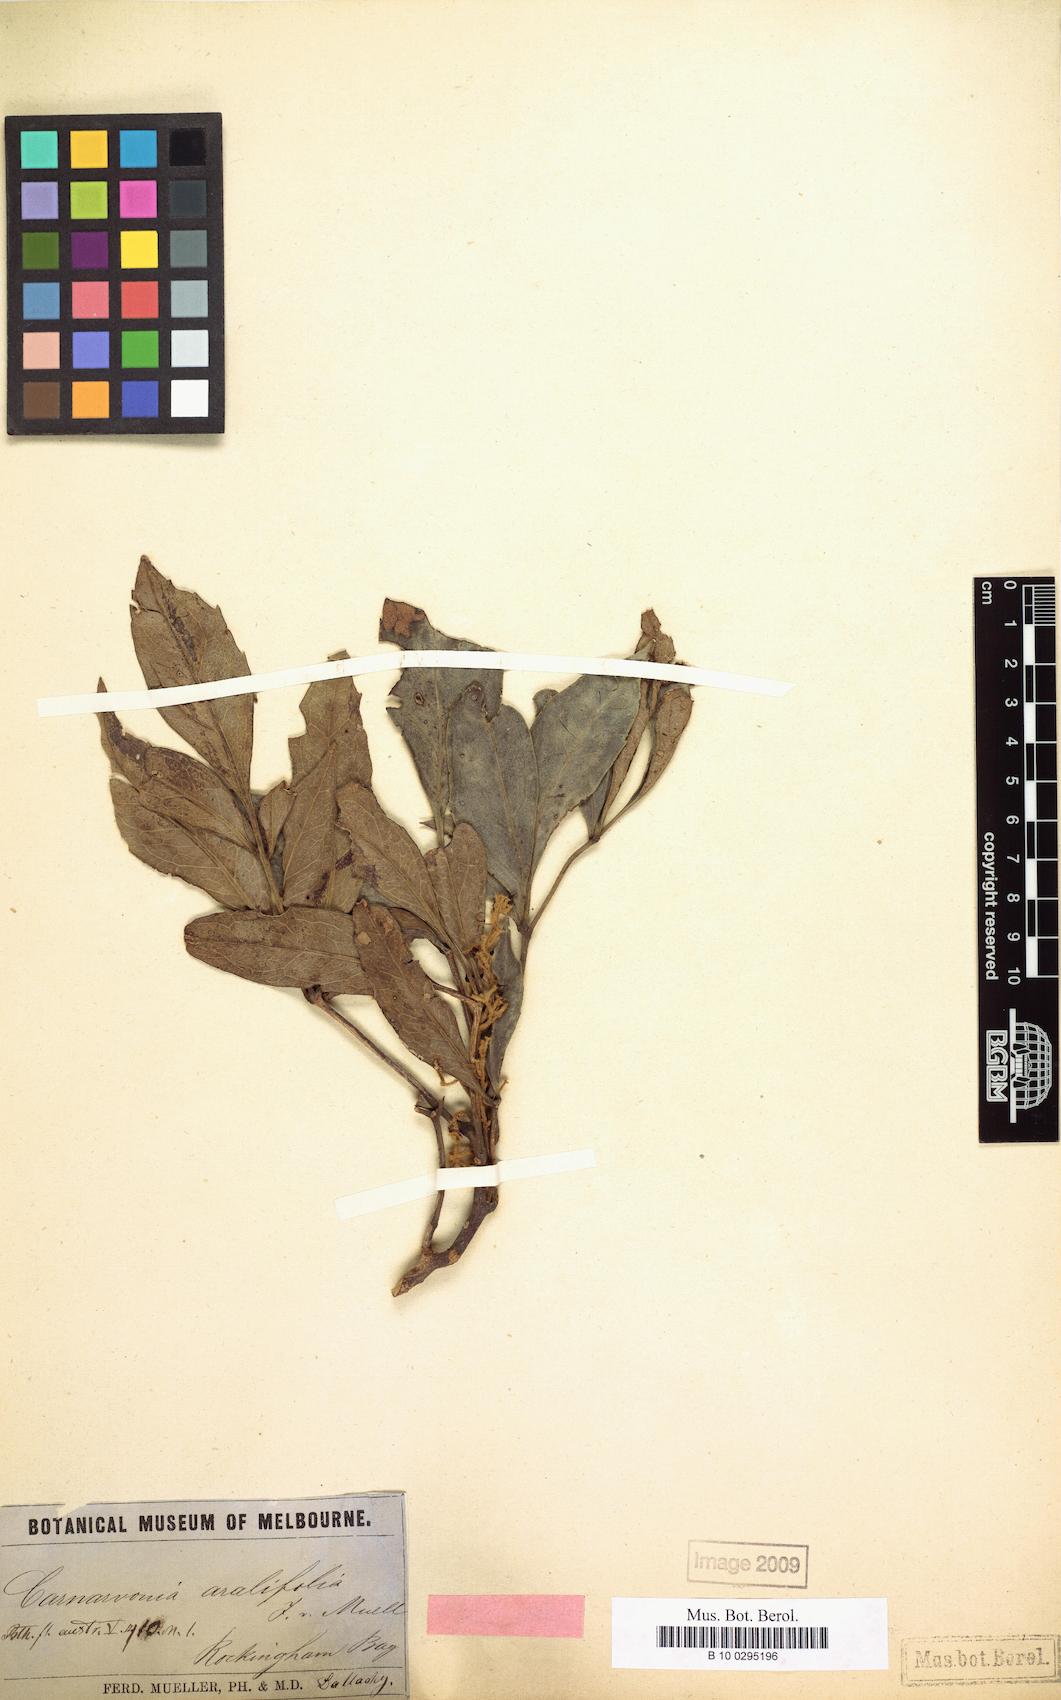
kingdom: Plantae
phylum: Tracheophyta
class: Magnoliopsida
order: Proteales
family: Proteaceae
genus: Carnarvonia
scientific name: Carnarvonia araliifolia
